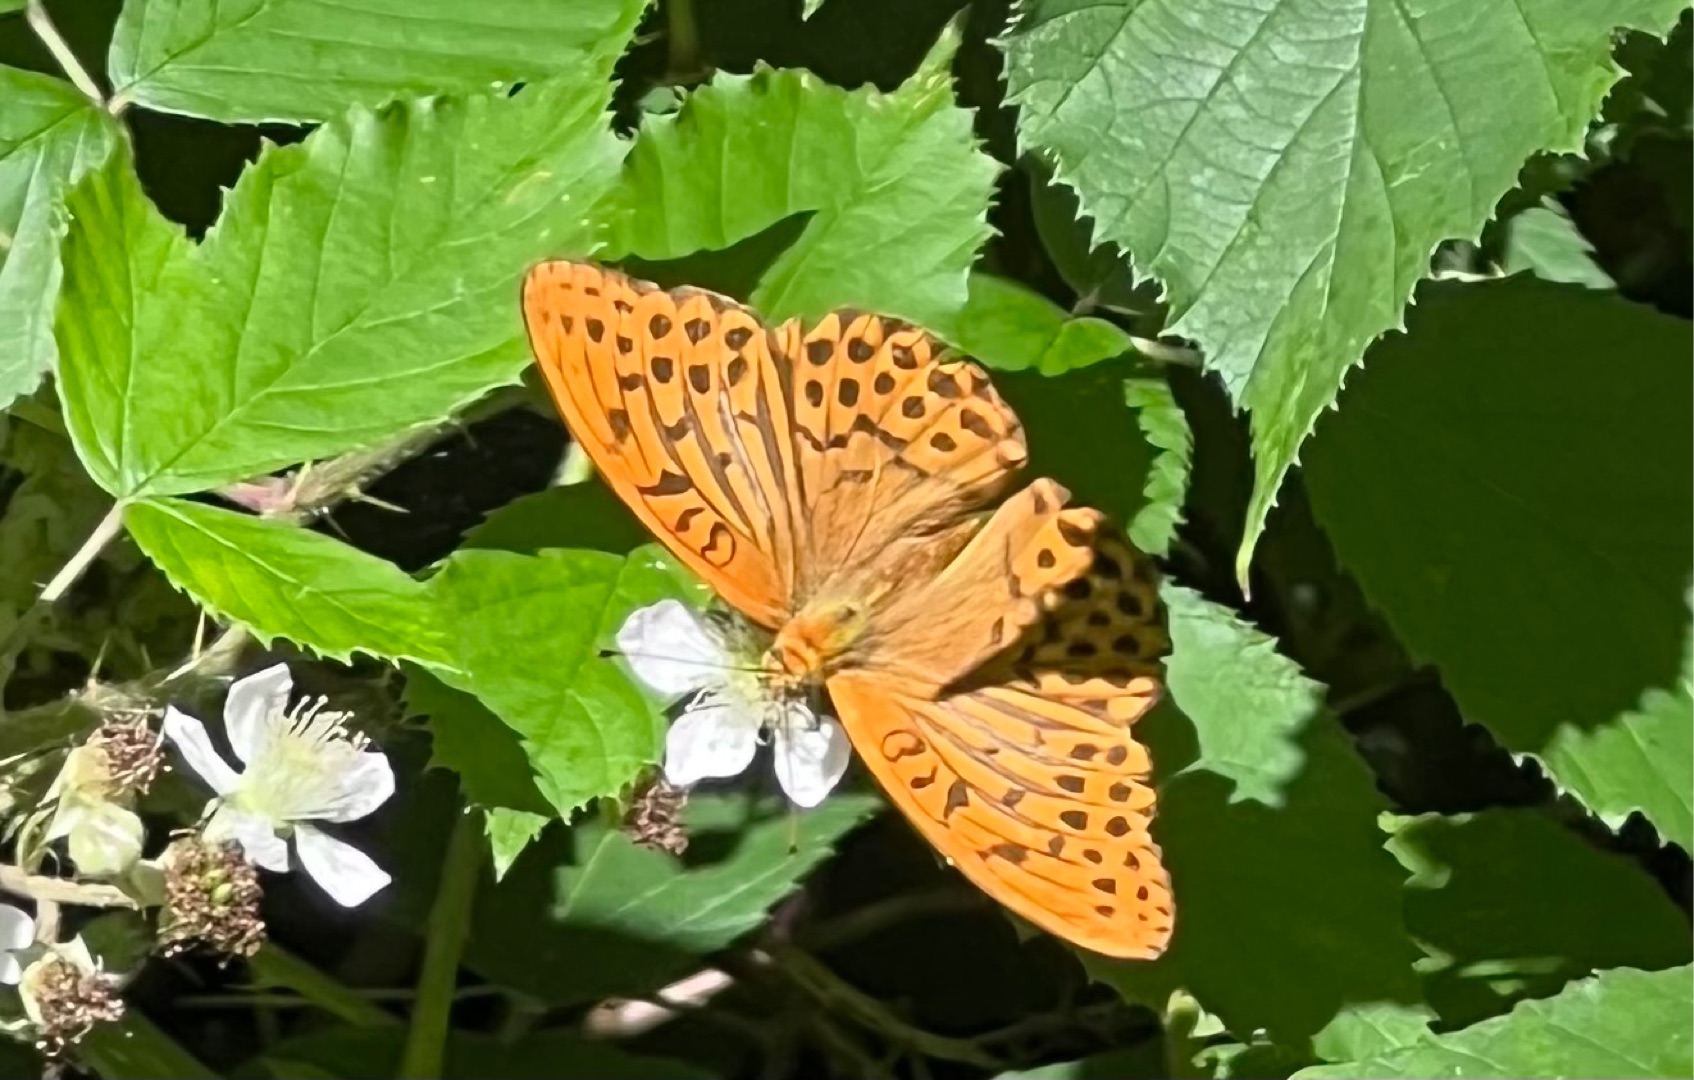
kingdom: Animalia
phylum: Arthropoda
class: Insecta
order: Lepidoptera
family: Nymphalidae
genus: Argynnis
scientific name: Argynnis paphia
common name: Kejserkåbe
